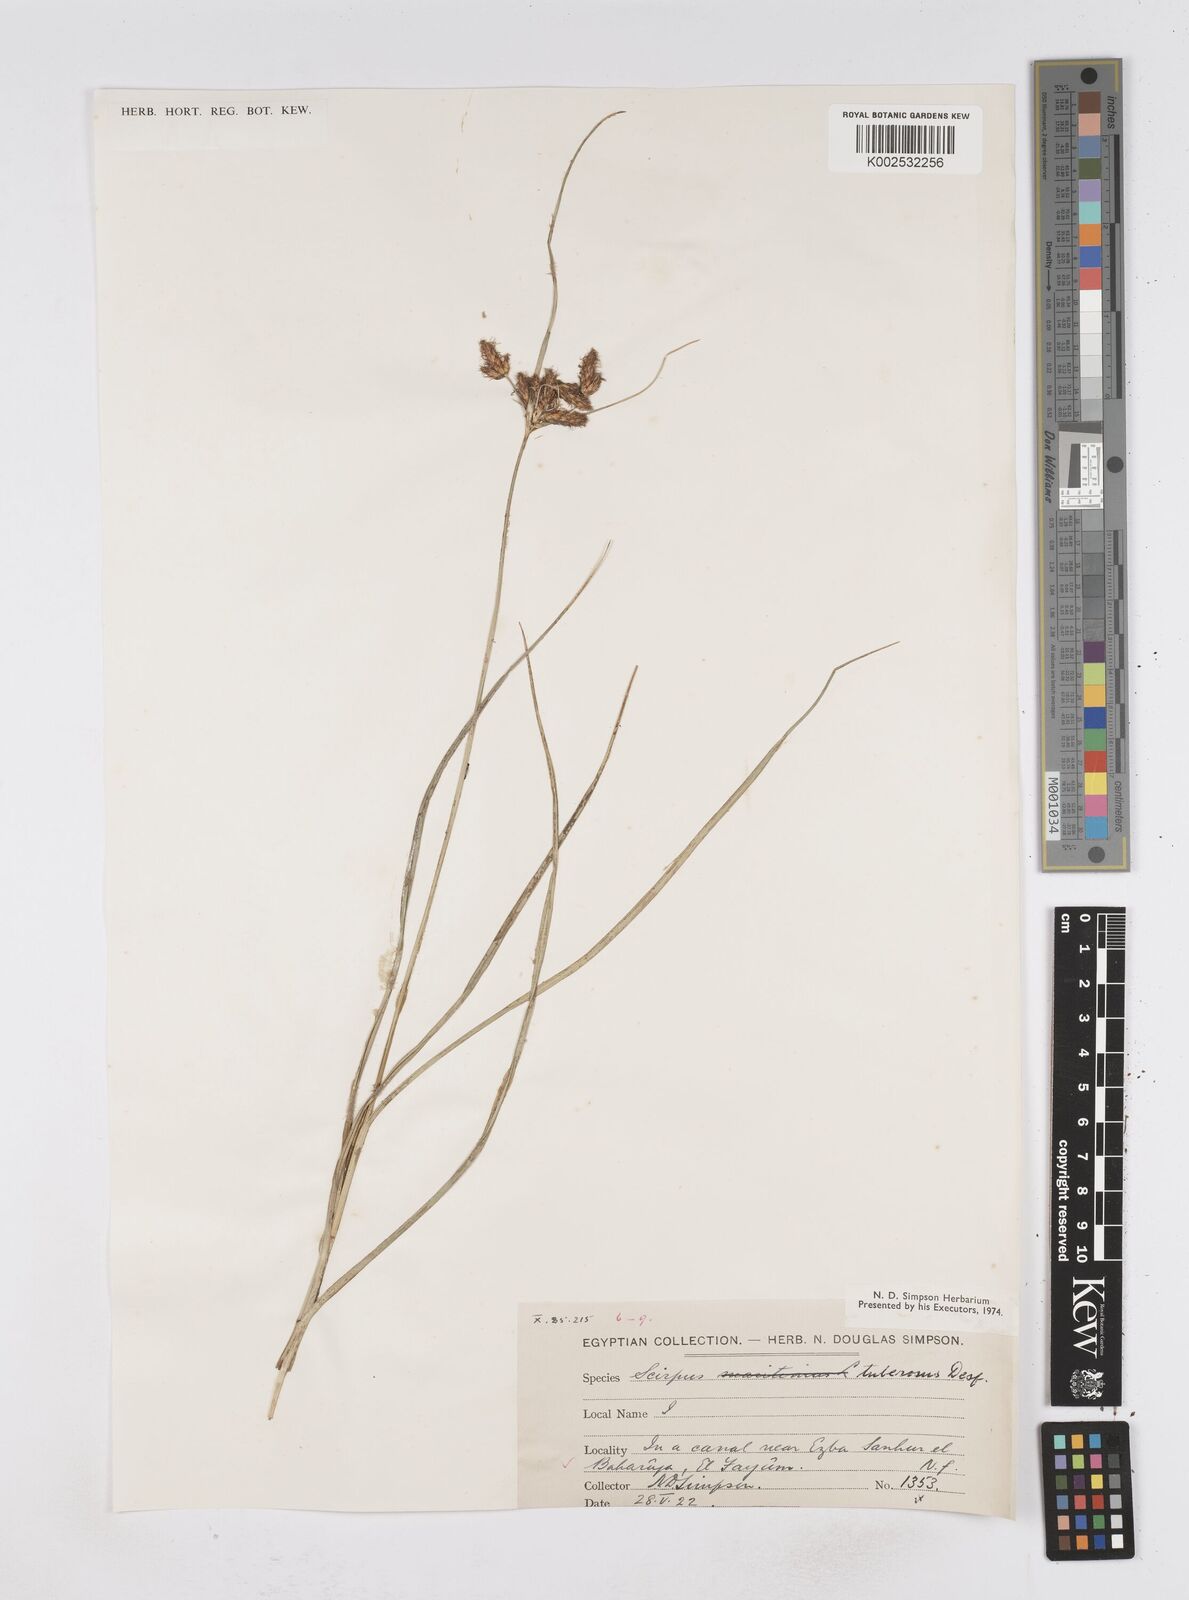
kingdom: Plantae
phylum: Tracheophyta
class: Liliopsida
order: Poales
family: Cyperaceae
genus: Bolboschoenus
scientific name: Bolboschoenus maritimus
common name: Sea club-rush
